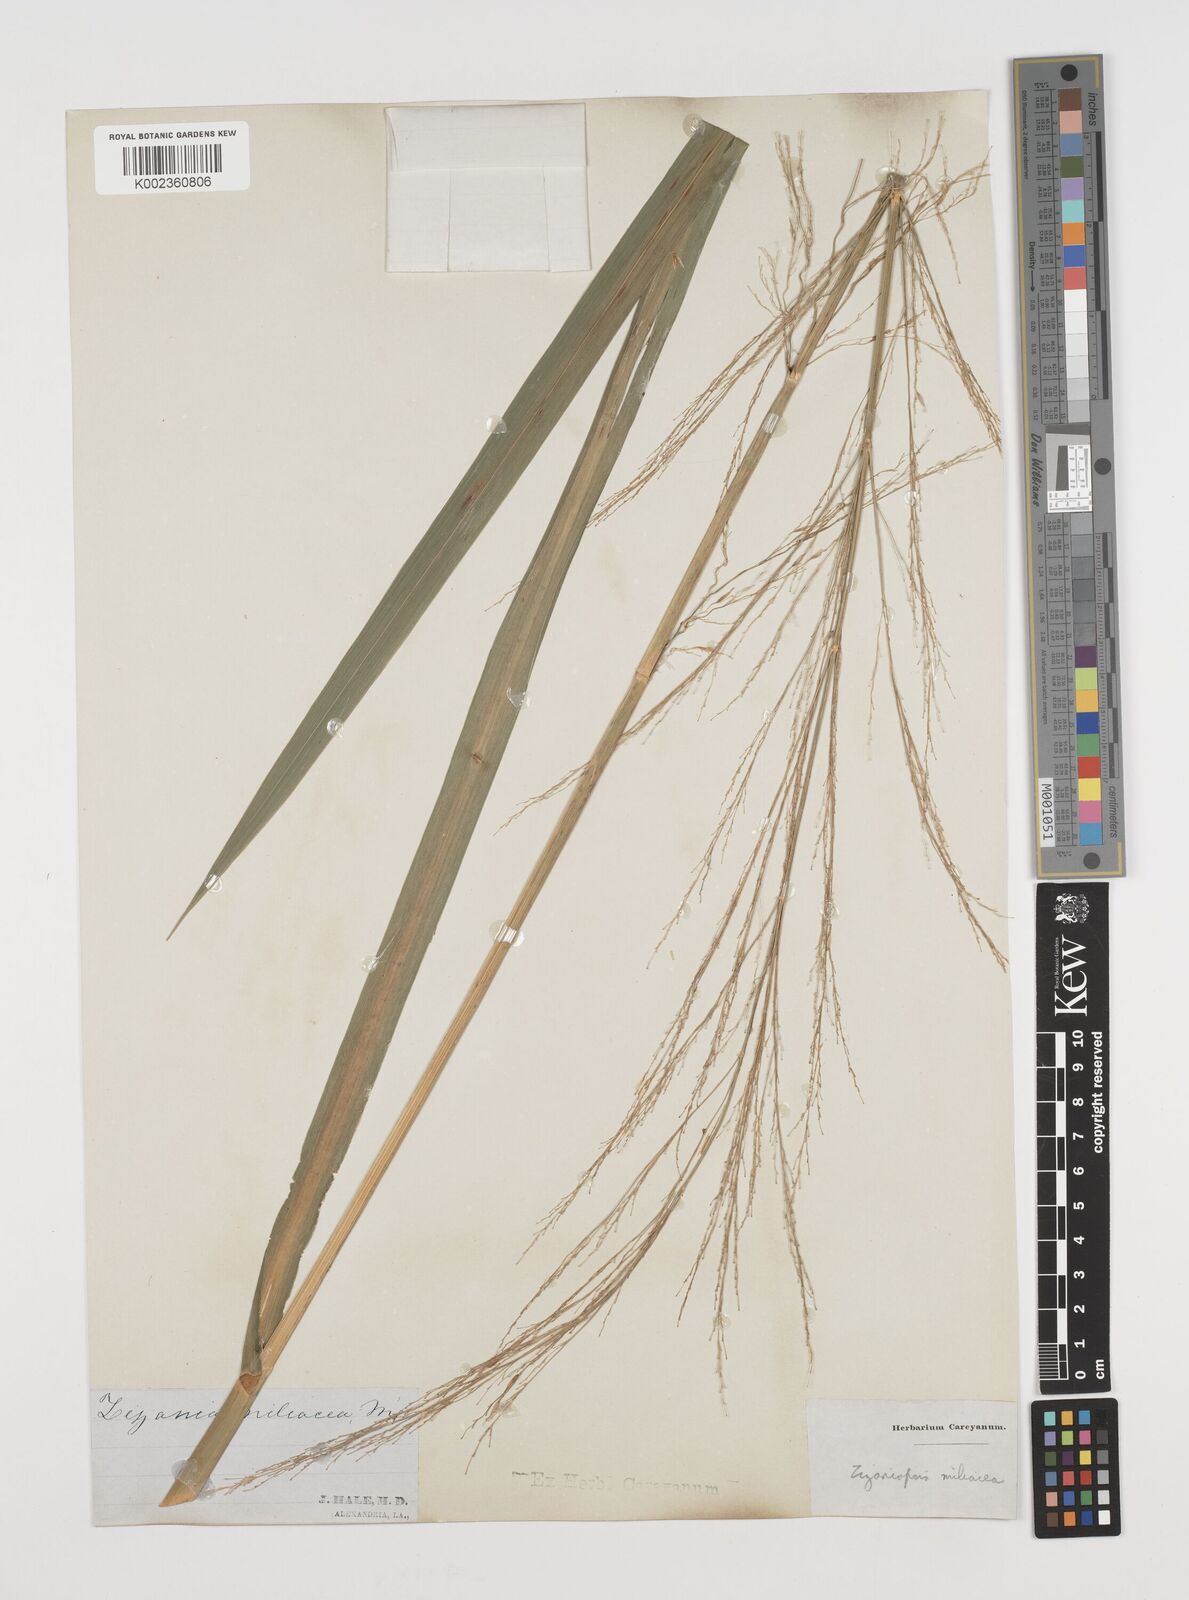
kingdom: Plantae
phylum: Tracheophyta
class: Liliopsida
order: Poales
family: Poaceae
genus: Zizaniopsis
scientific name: Zizaniopsis miliacea
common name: Giant-cutgrass
